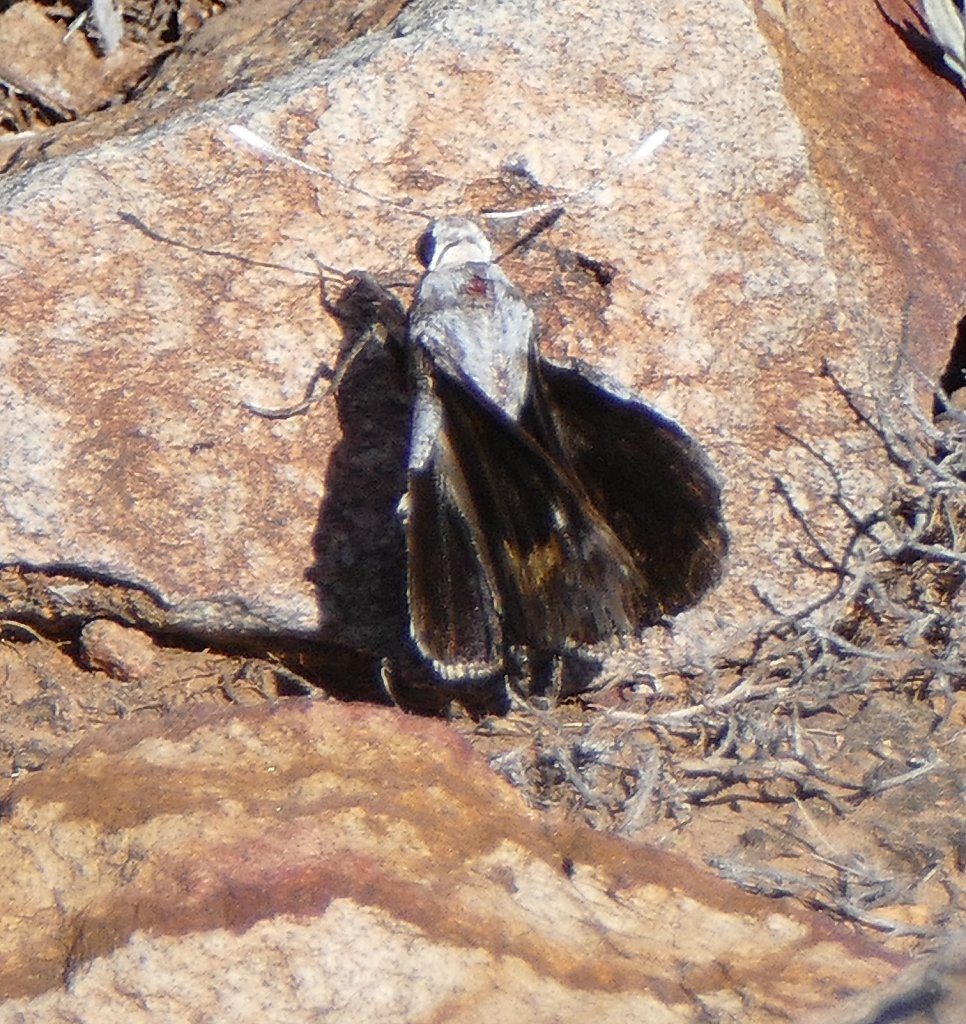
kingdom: Animalia
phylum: Arthropoda
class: Insecta
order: Lepidoptera
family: Hesperiidae
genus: Megathymus
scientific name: Megathymus ursus
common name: Ursine Giant-Skipper
